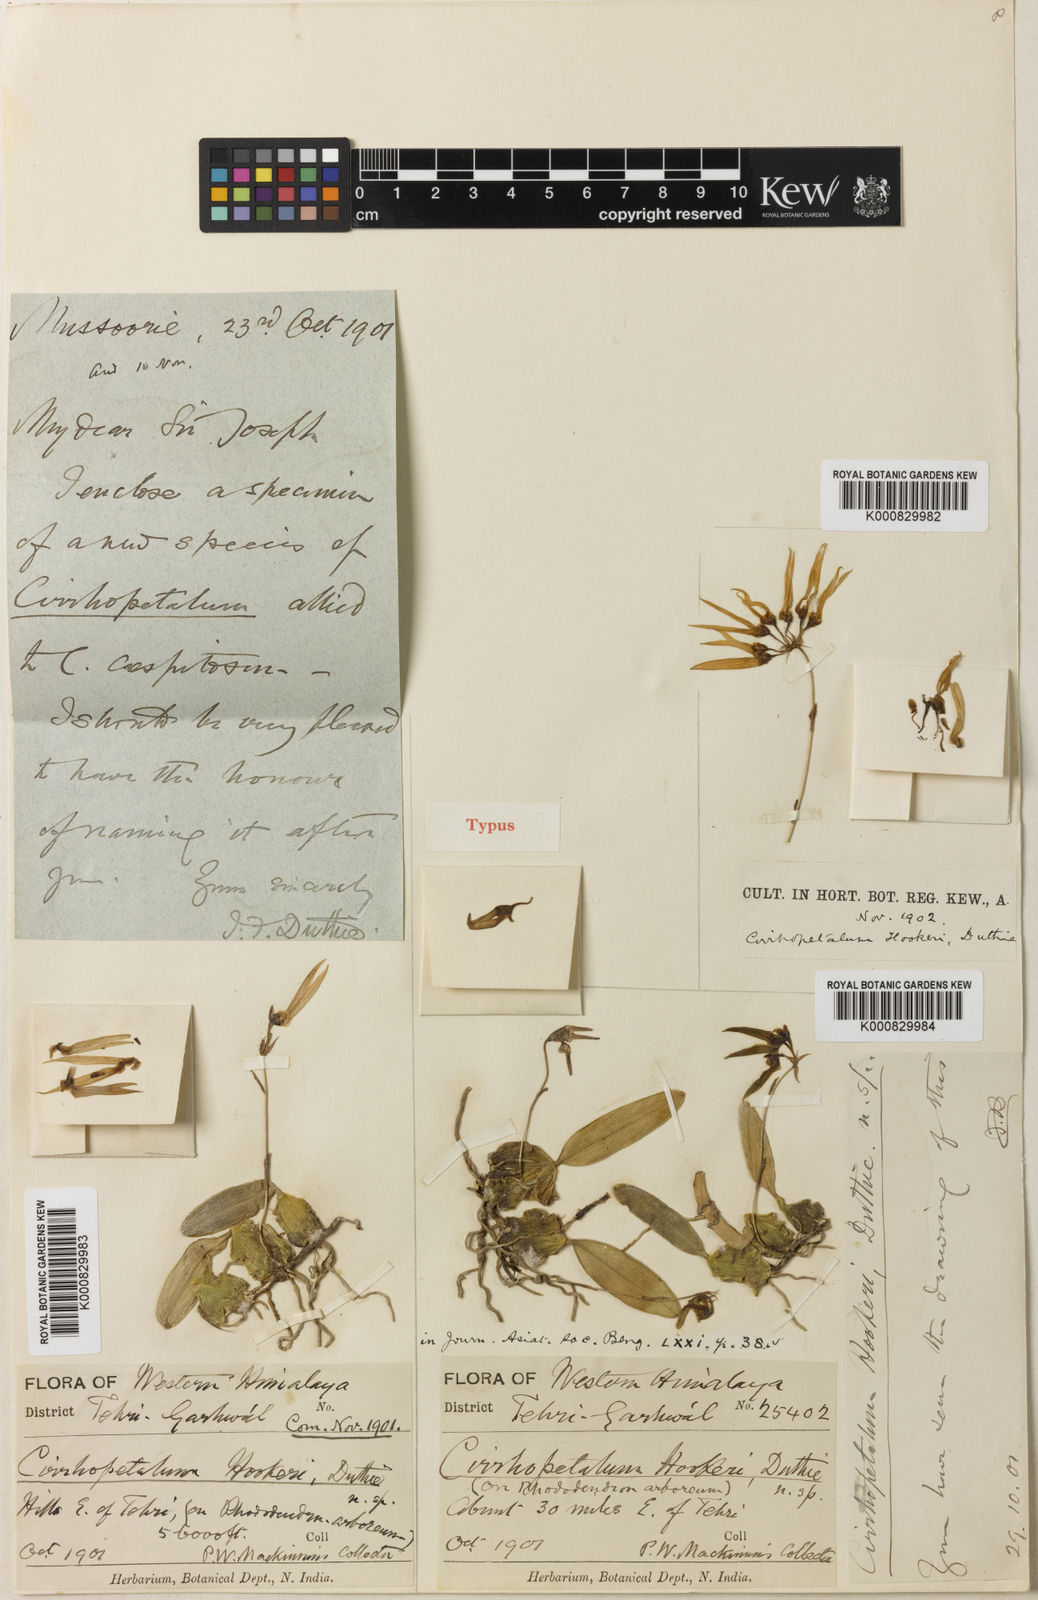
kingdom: Plantae
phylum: Tracheophyta
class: Liliopsida
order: Asparagales
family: Orchidaceae
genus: Bulbophyllum
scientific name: Bulbophyllum muscicola
